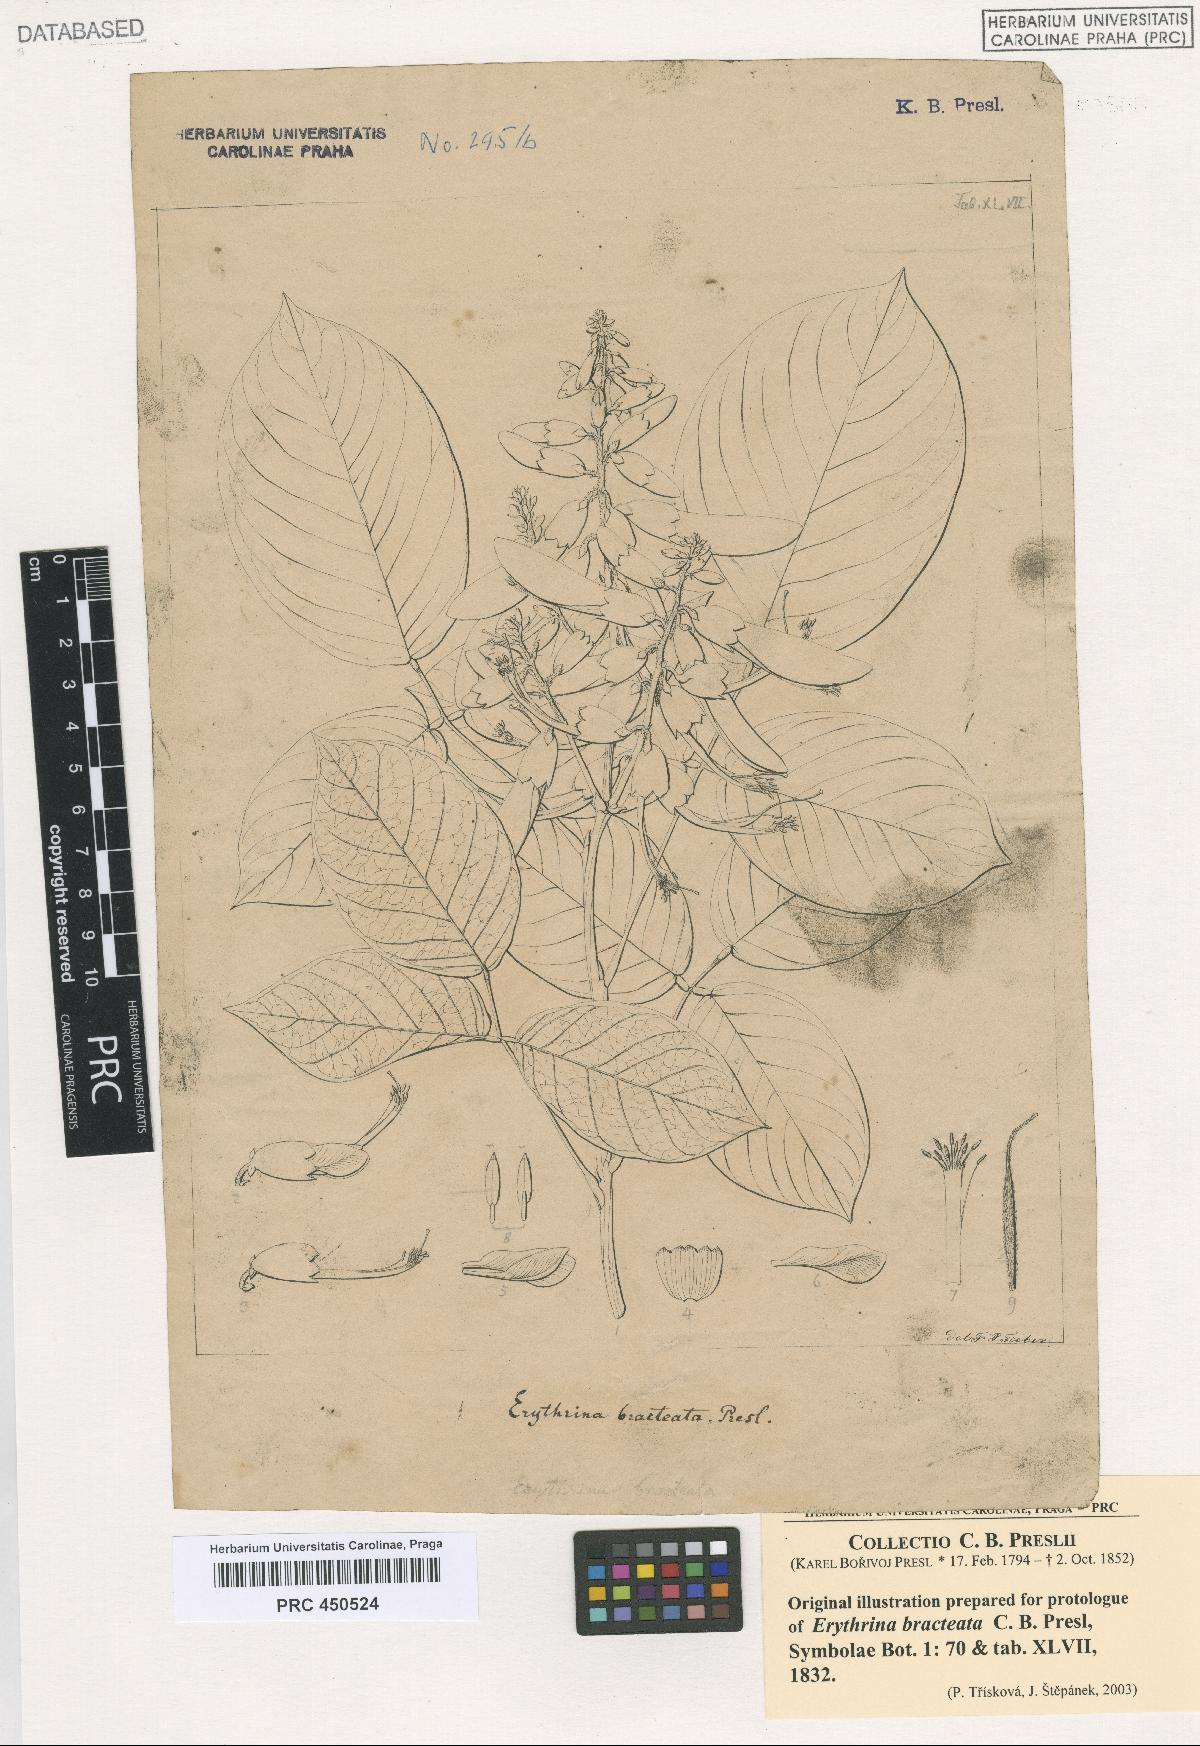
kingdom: Plantae
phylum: Tracheophyta
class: Magnoliopsida
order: Fabales
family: Fabaceae
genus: Cratylia
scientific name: Cratylia isopetala
